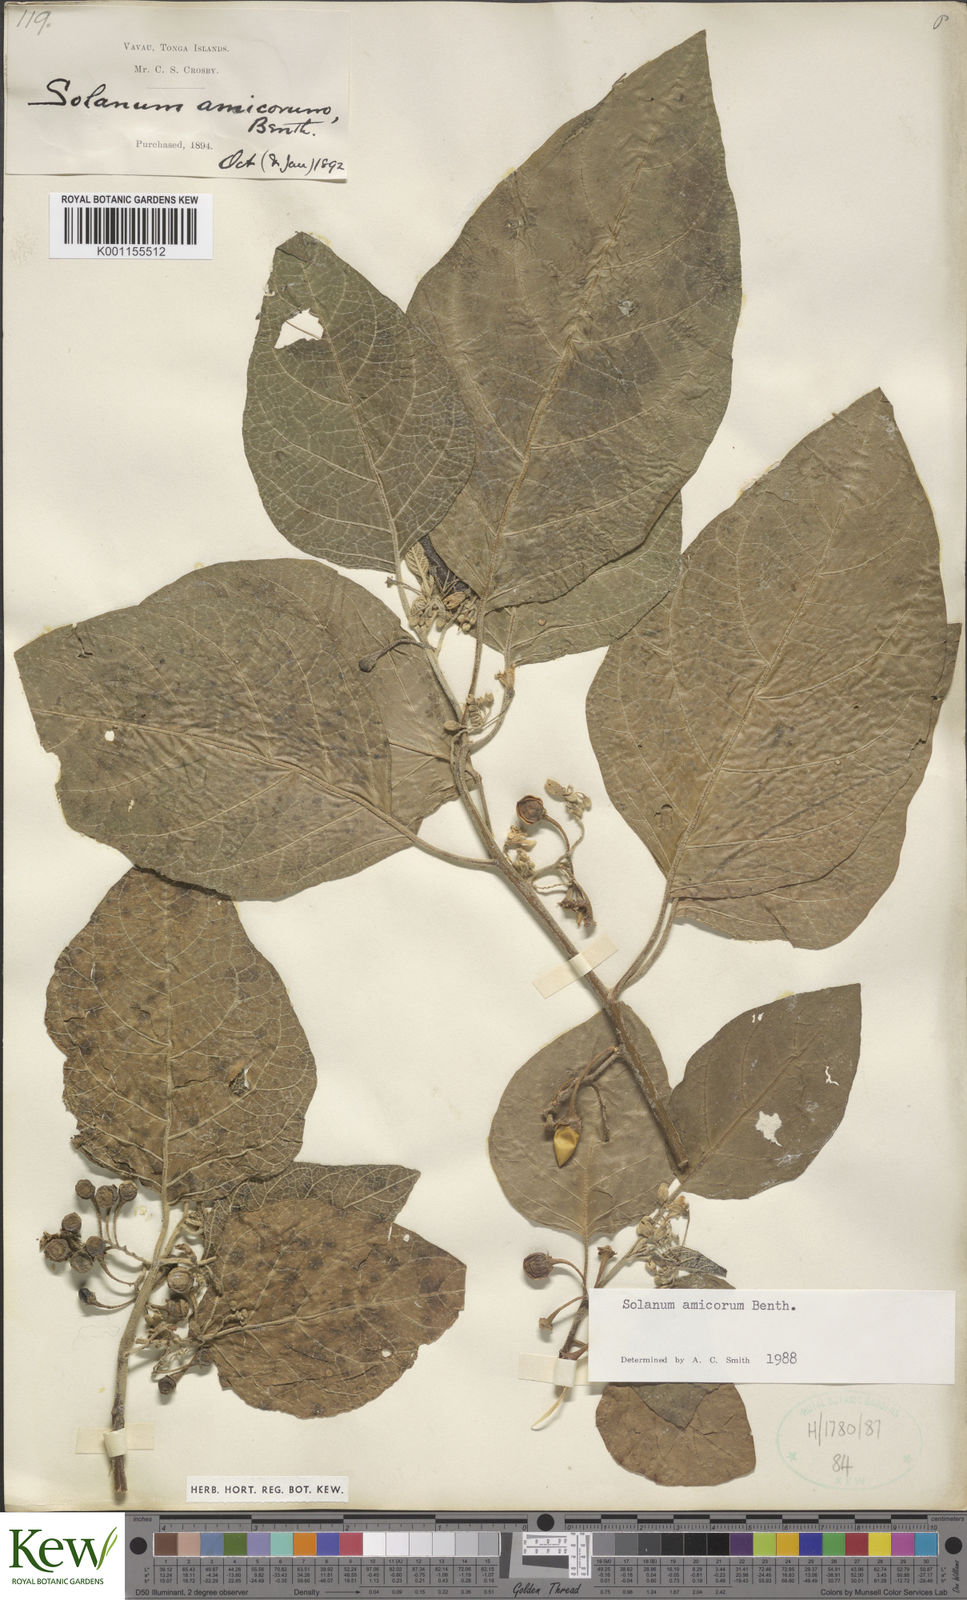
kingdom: Plantae
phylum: Tracheophyta
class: Magnoliopsida
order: Solanales
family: Solanaceae
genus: Solanum
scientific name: Solanum amicorum
